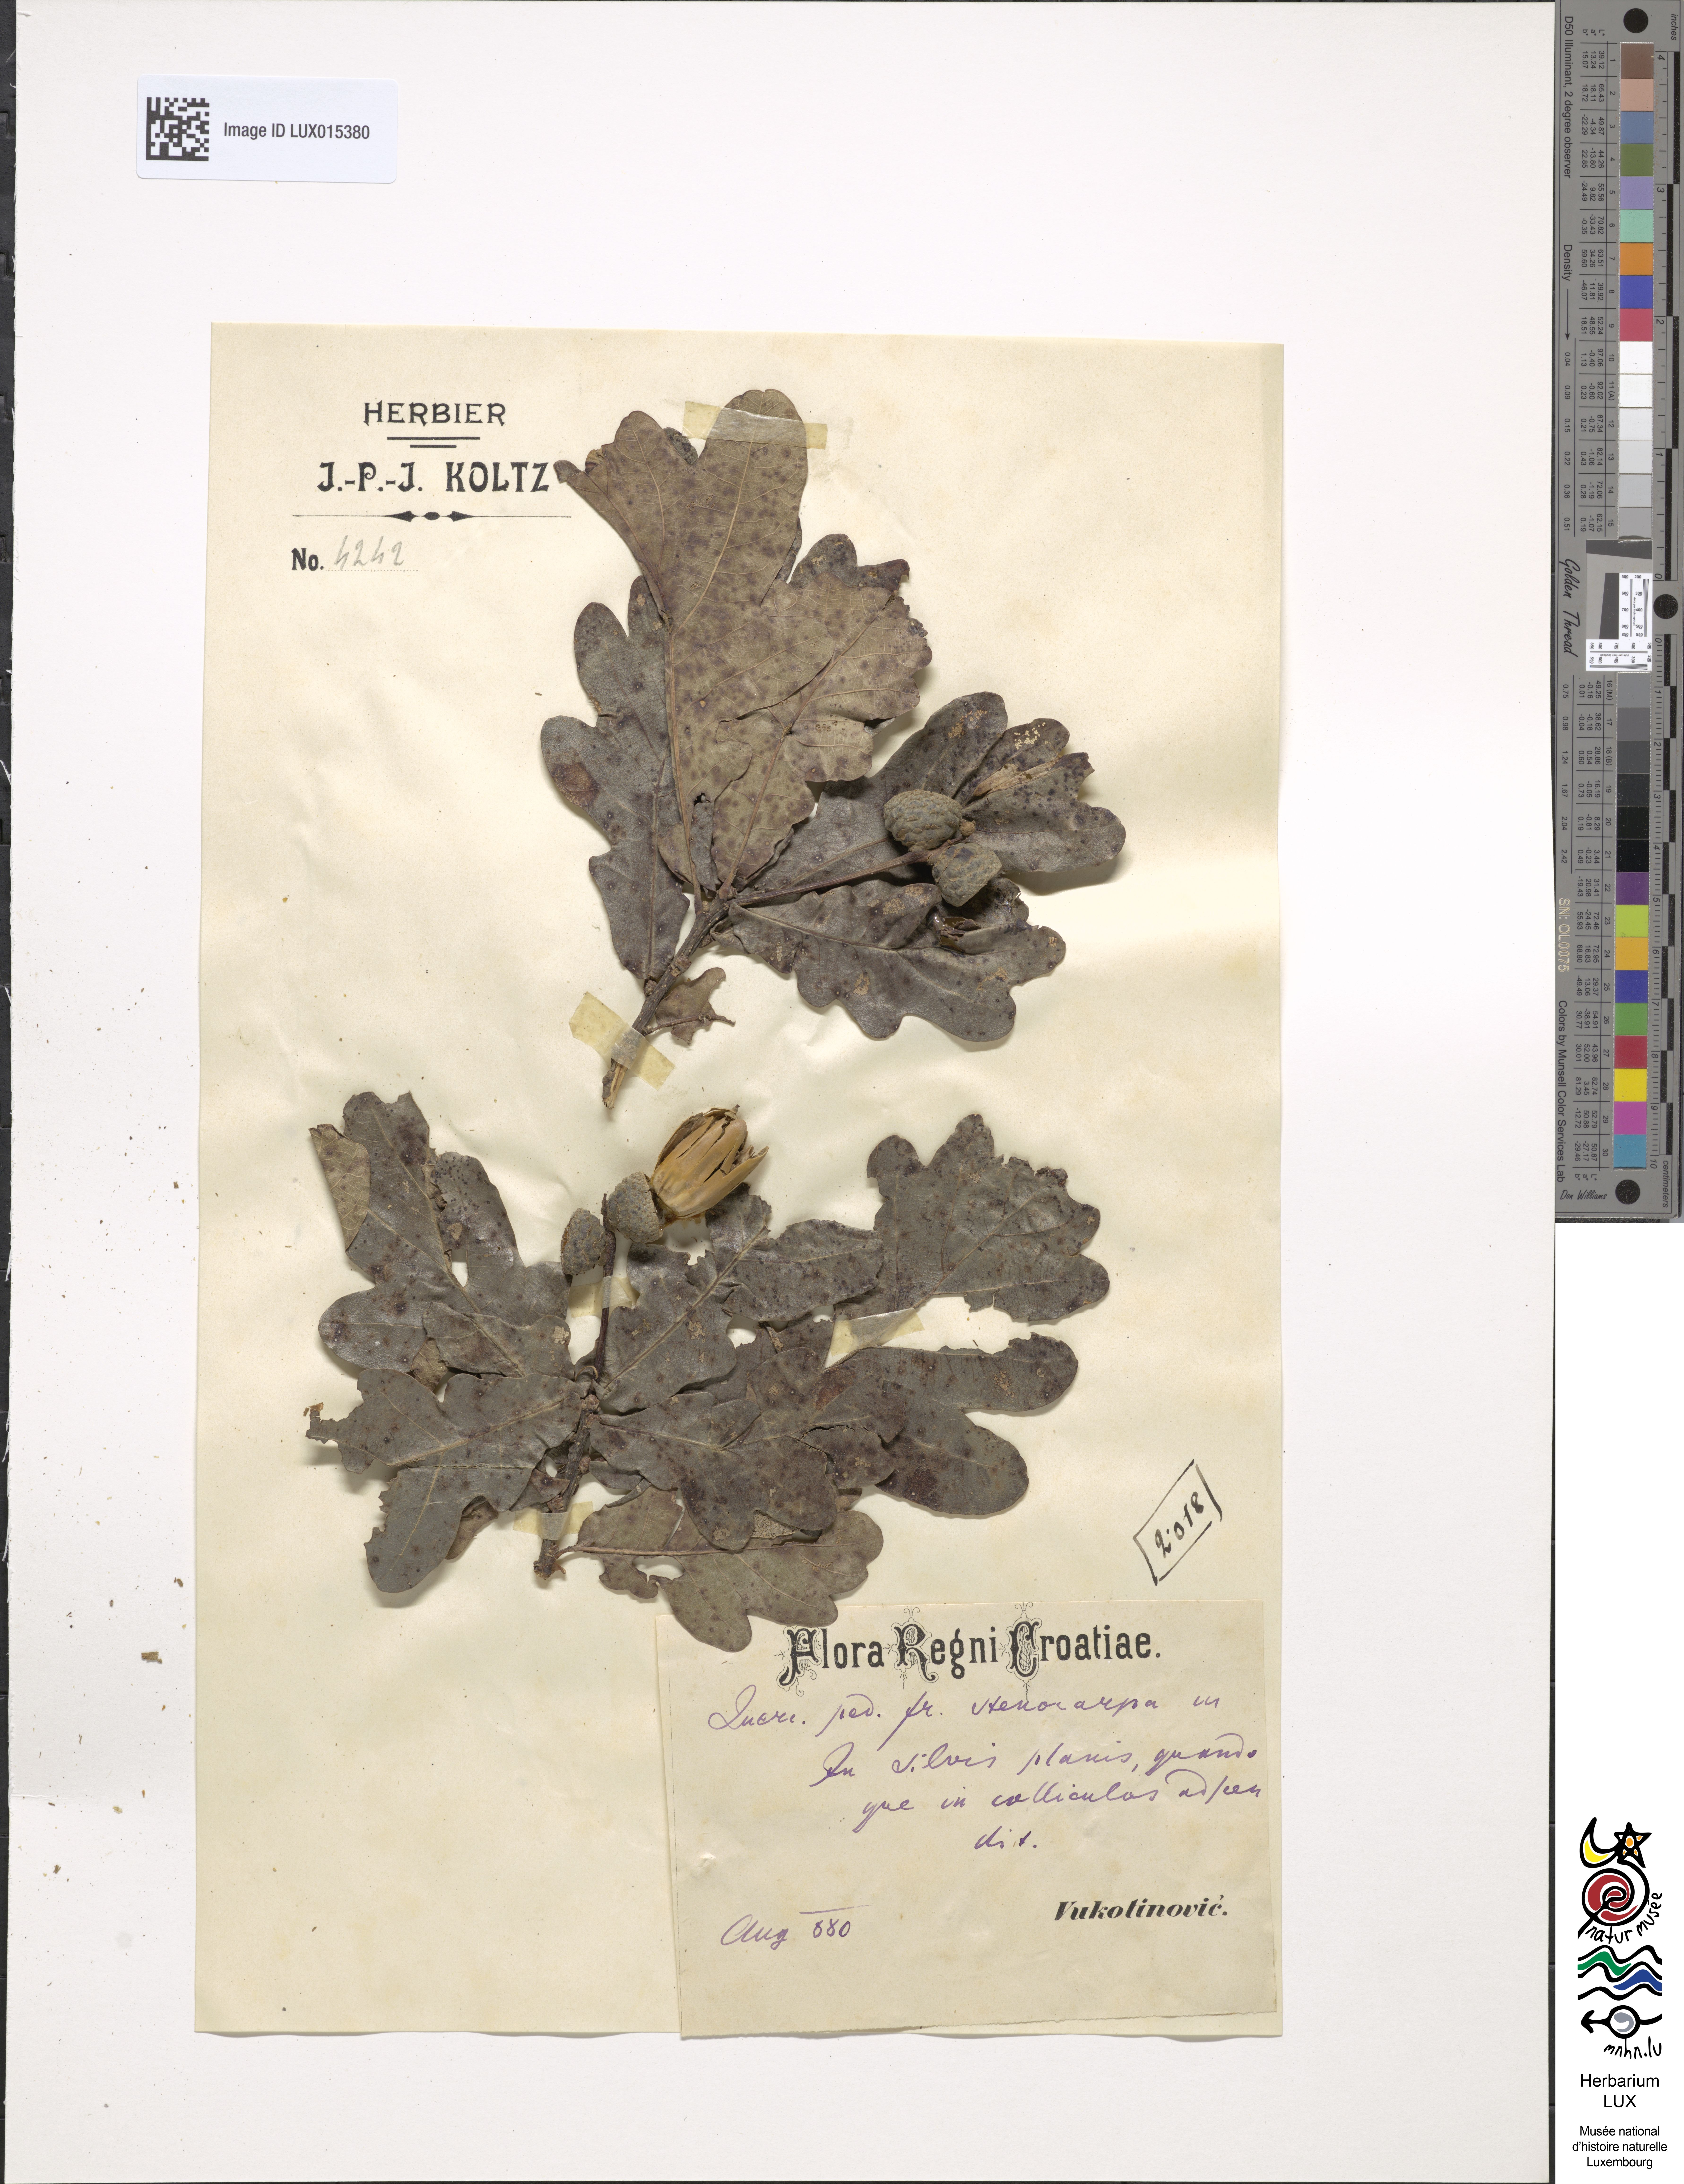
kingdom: Plantae
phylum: Tracheophyta
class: Magnoliopsida
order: Fagales
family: Fagaceae
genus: Quercus
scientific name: Quercus robur
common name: Pedunculate oak
